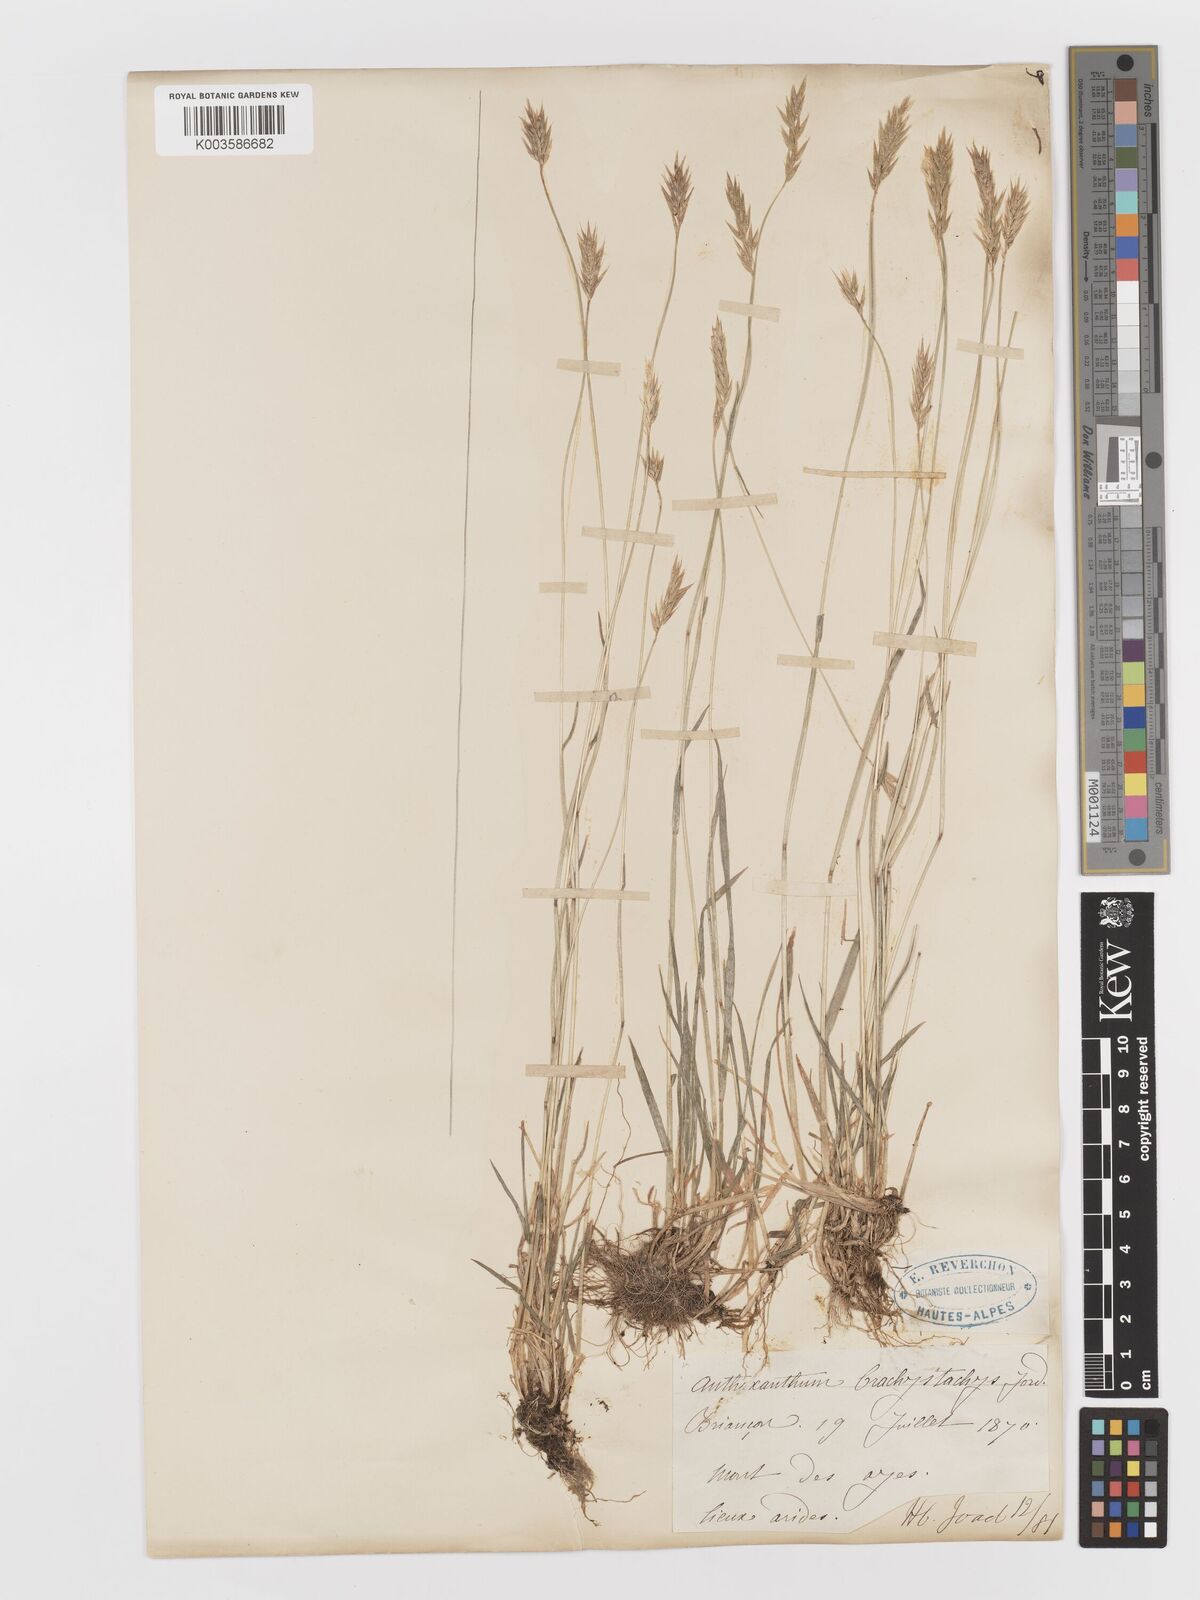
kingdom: Plantae
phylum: Tracheophyta
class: Liliopsida
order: Poales
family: Poaceae
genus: Anthoxanthum
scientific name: Anthoxanthum odoratum
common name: Sweet vernalgrass
